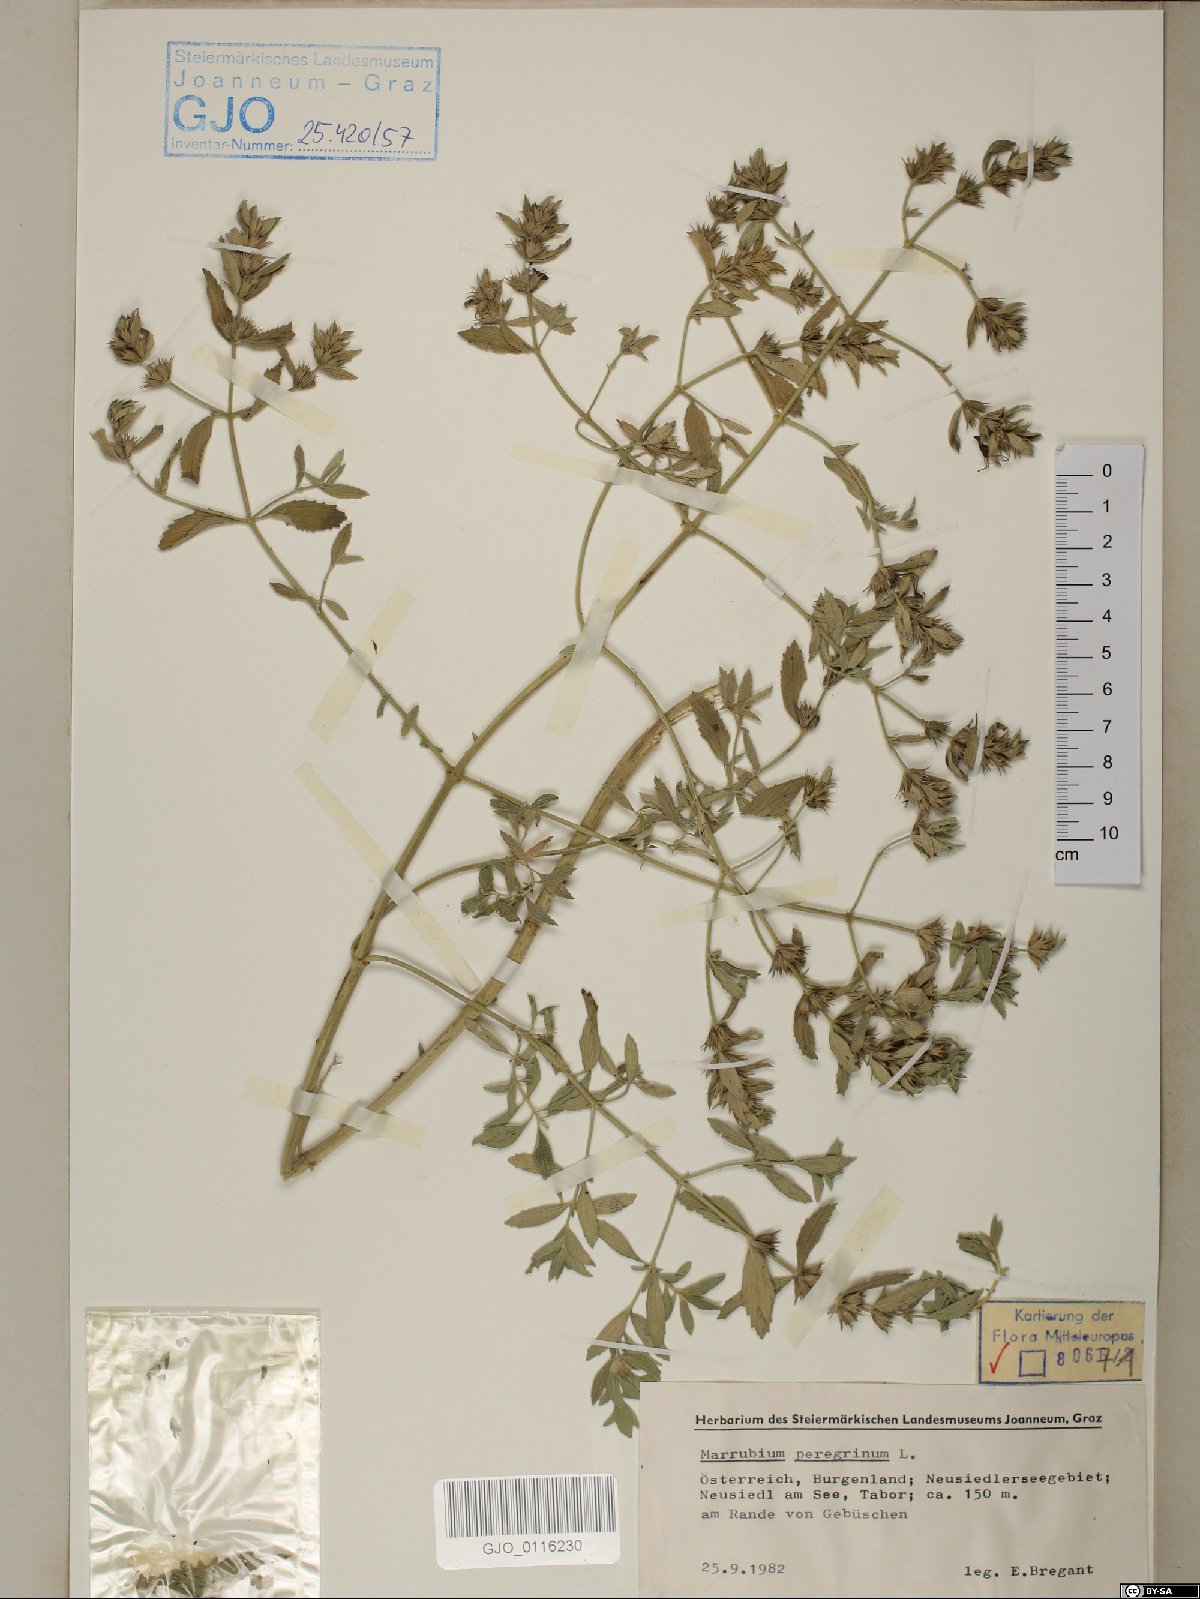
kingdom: Plantae
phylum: Tracheophyta
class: Magnoliopsida
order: Lamiales
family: Lamiaceae
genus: Marrubium
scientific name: Marrubium peregrinum
